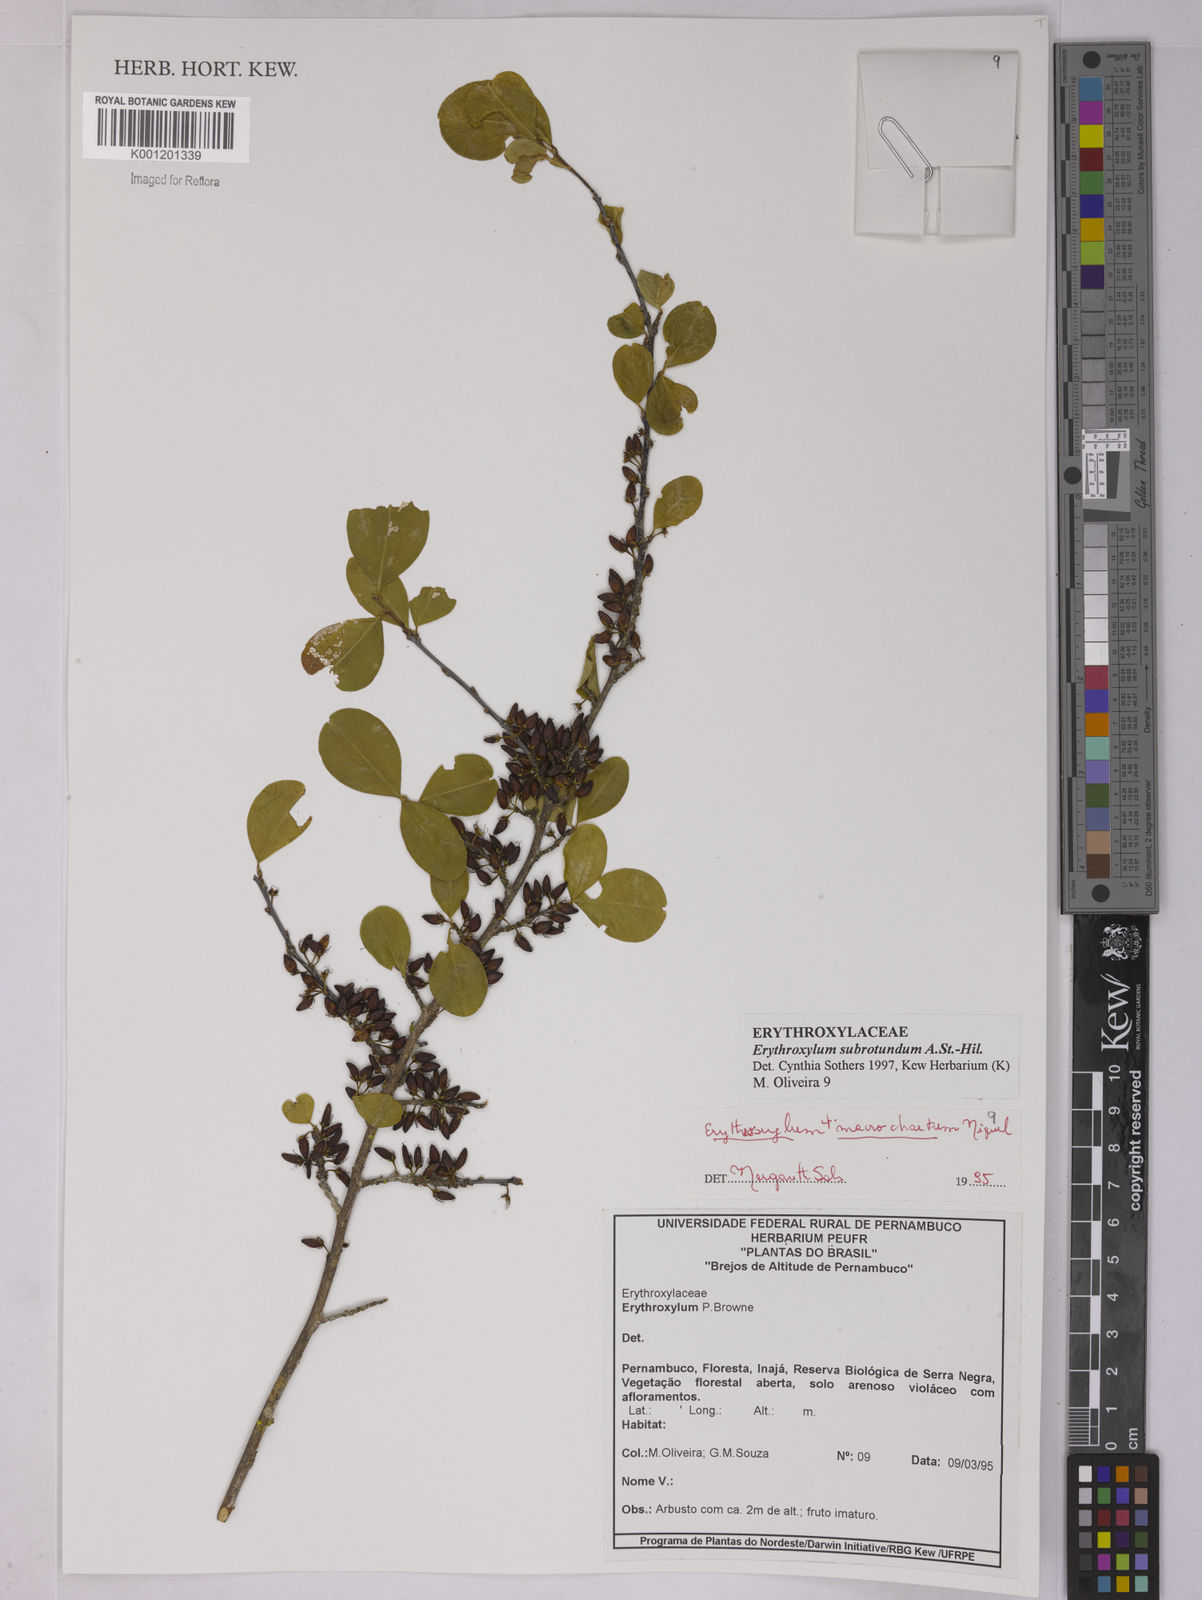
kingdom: Plantae
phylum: Tracheophyta
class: Magnoliopsida
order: Malpighiales
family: Erythroxylaceae
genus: Erythroxylum
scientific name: Erythroxylum subrotundum
